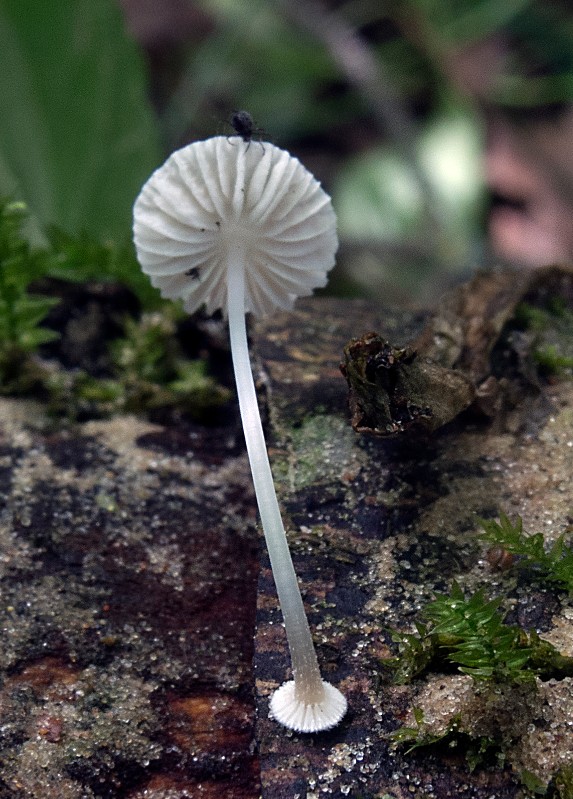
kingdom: Fungi
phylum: Basidiomycota
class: Agaricomycetes
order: Agaricales
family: Mycenaceae
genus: Mycena
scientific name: Mycena stylobates
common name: fureskivet huesvamp
